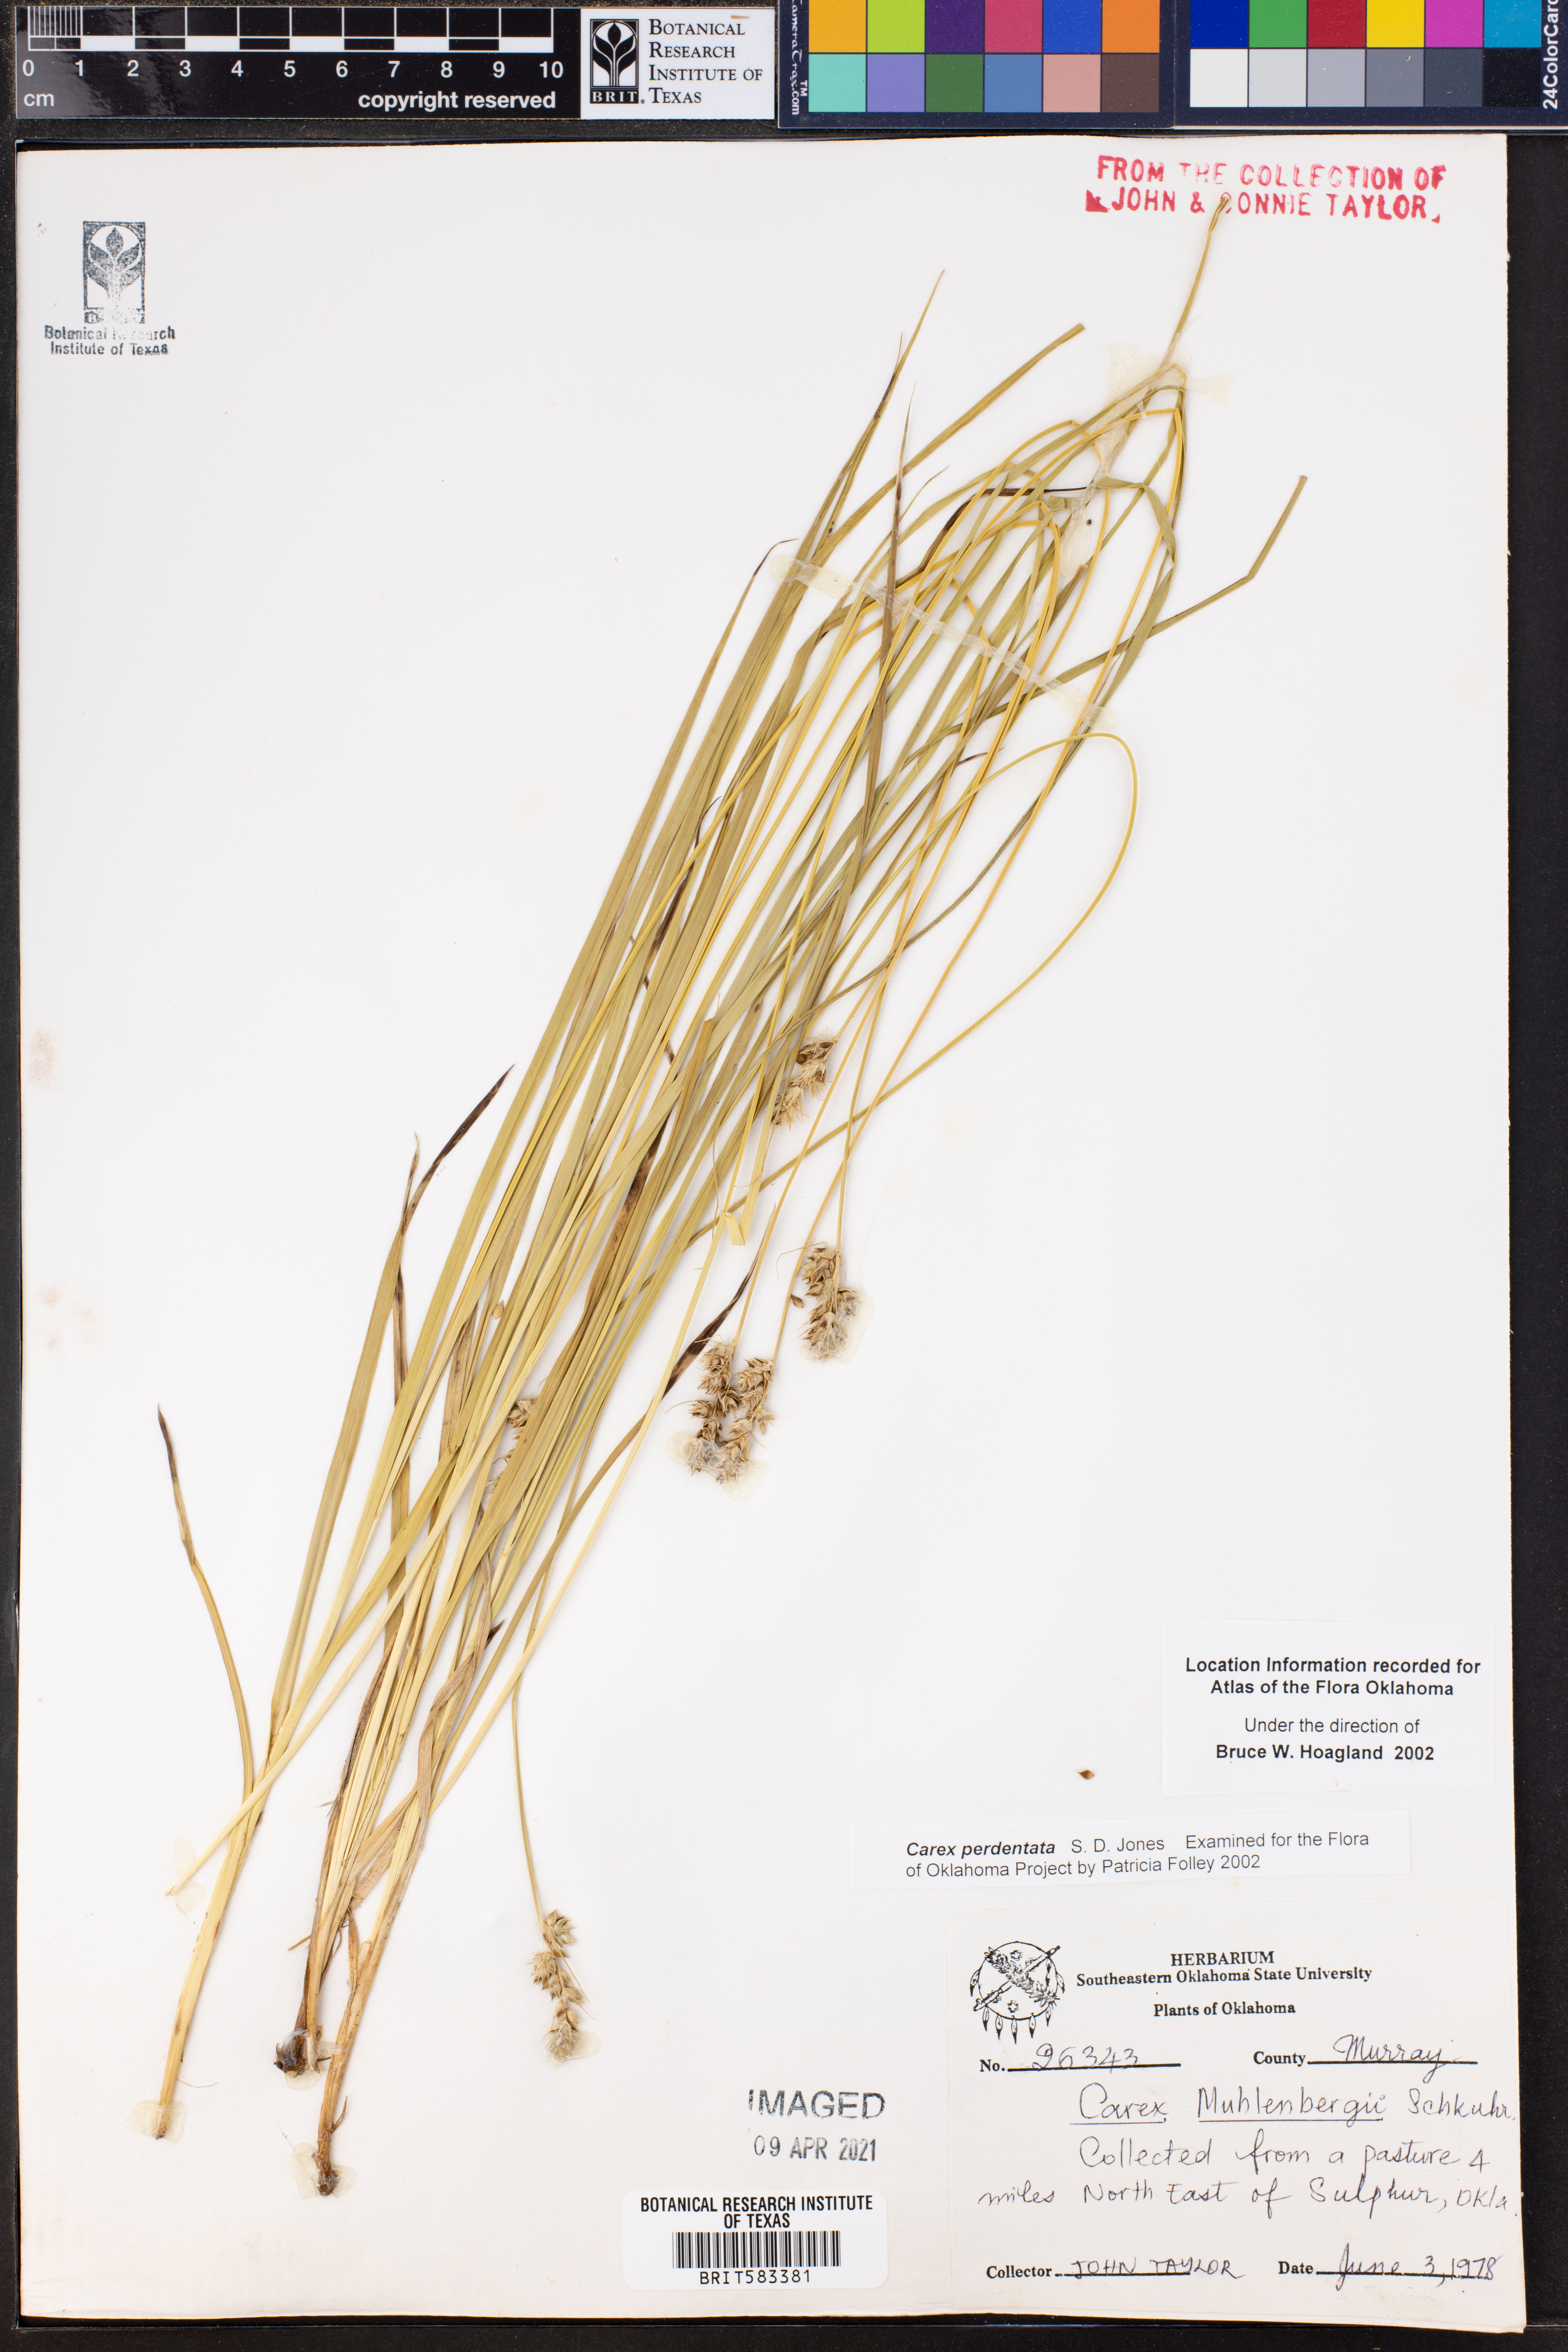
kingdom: Plantae
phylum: Tracheophyta
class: Liliopsida
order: Poales
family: Cyperaceae
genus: Carex
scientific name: Carex perdentata
